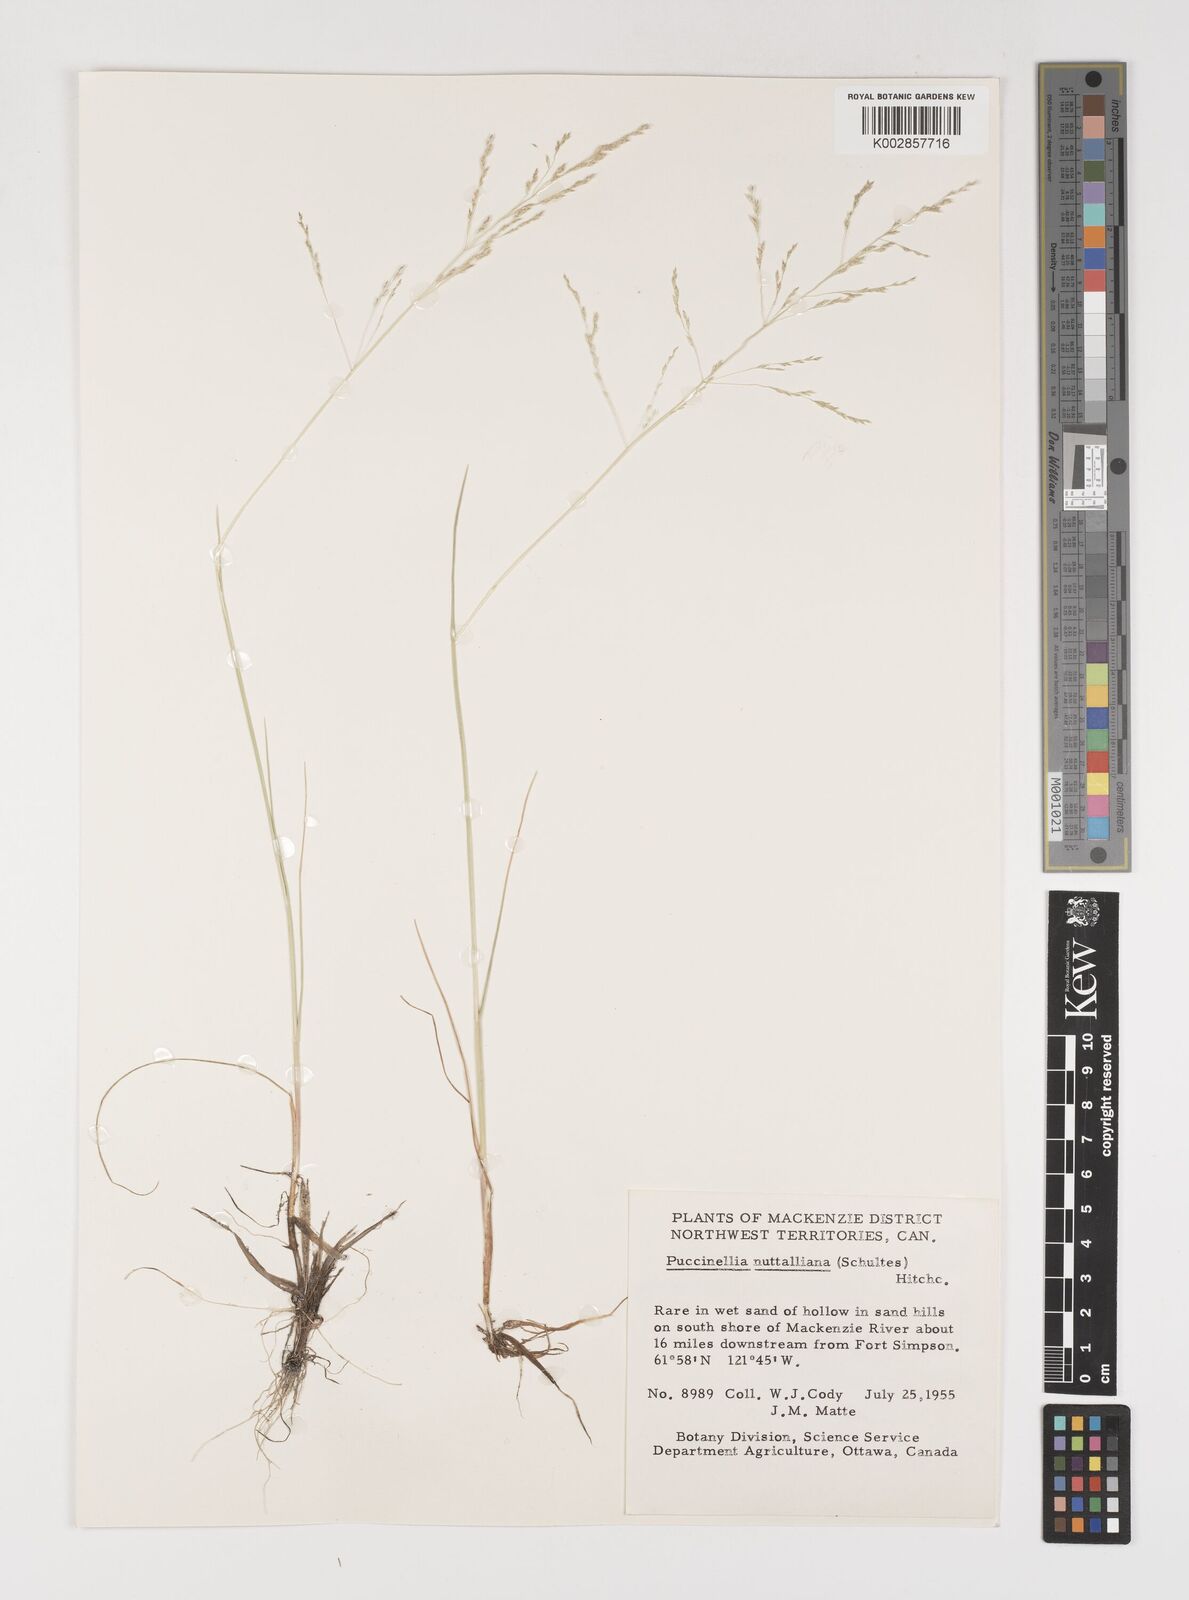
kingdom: Plantae
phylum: Tracheophyta
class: Liliopsida
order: Poales
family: Poaceae
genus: Puccinellia
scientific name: Puccinellia nuttalliana
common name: Nuttall's alkali grass
